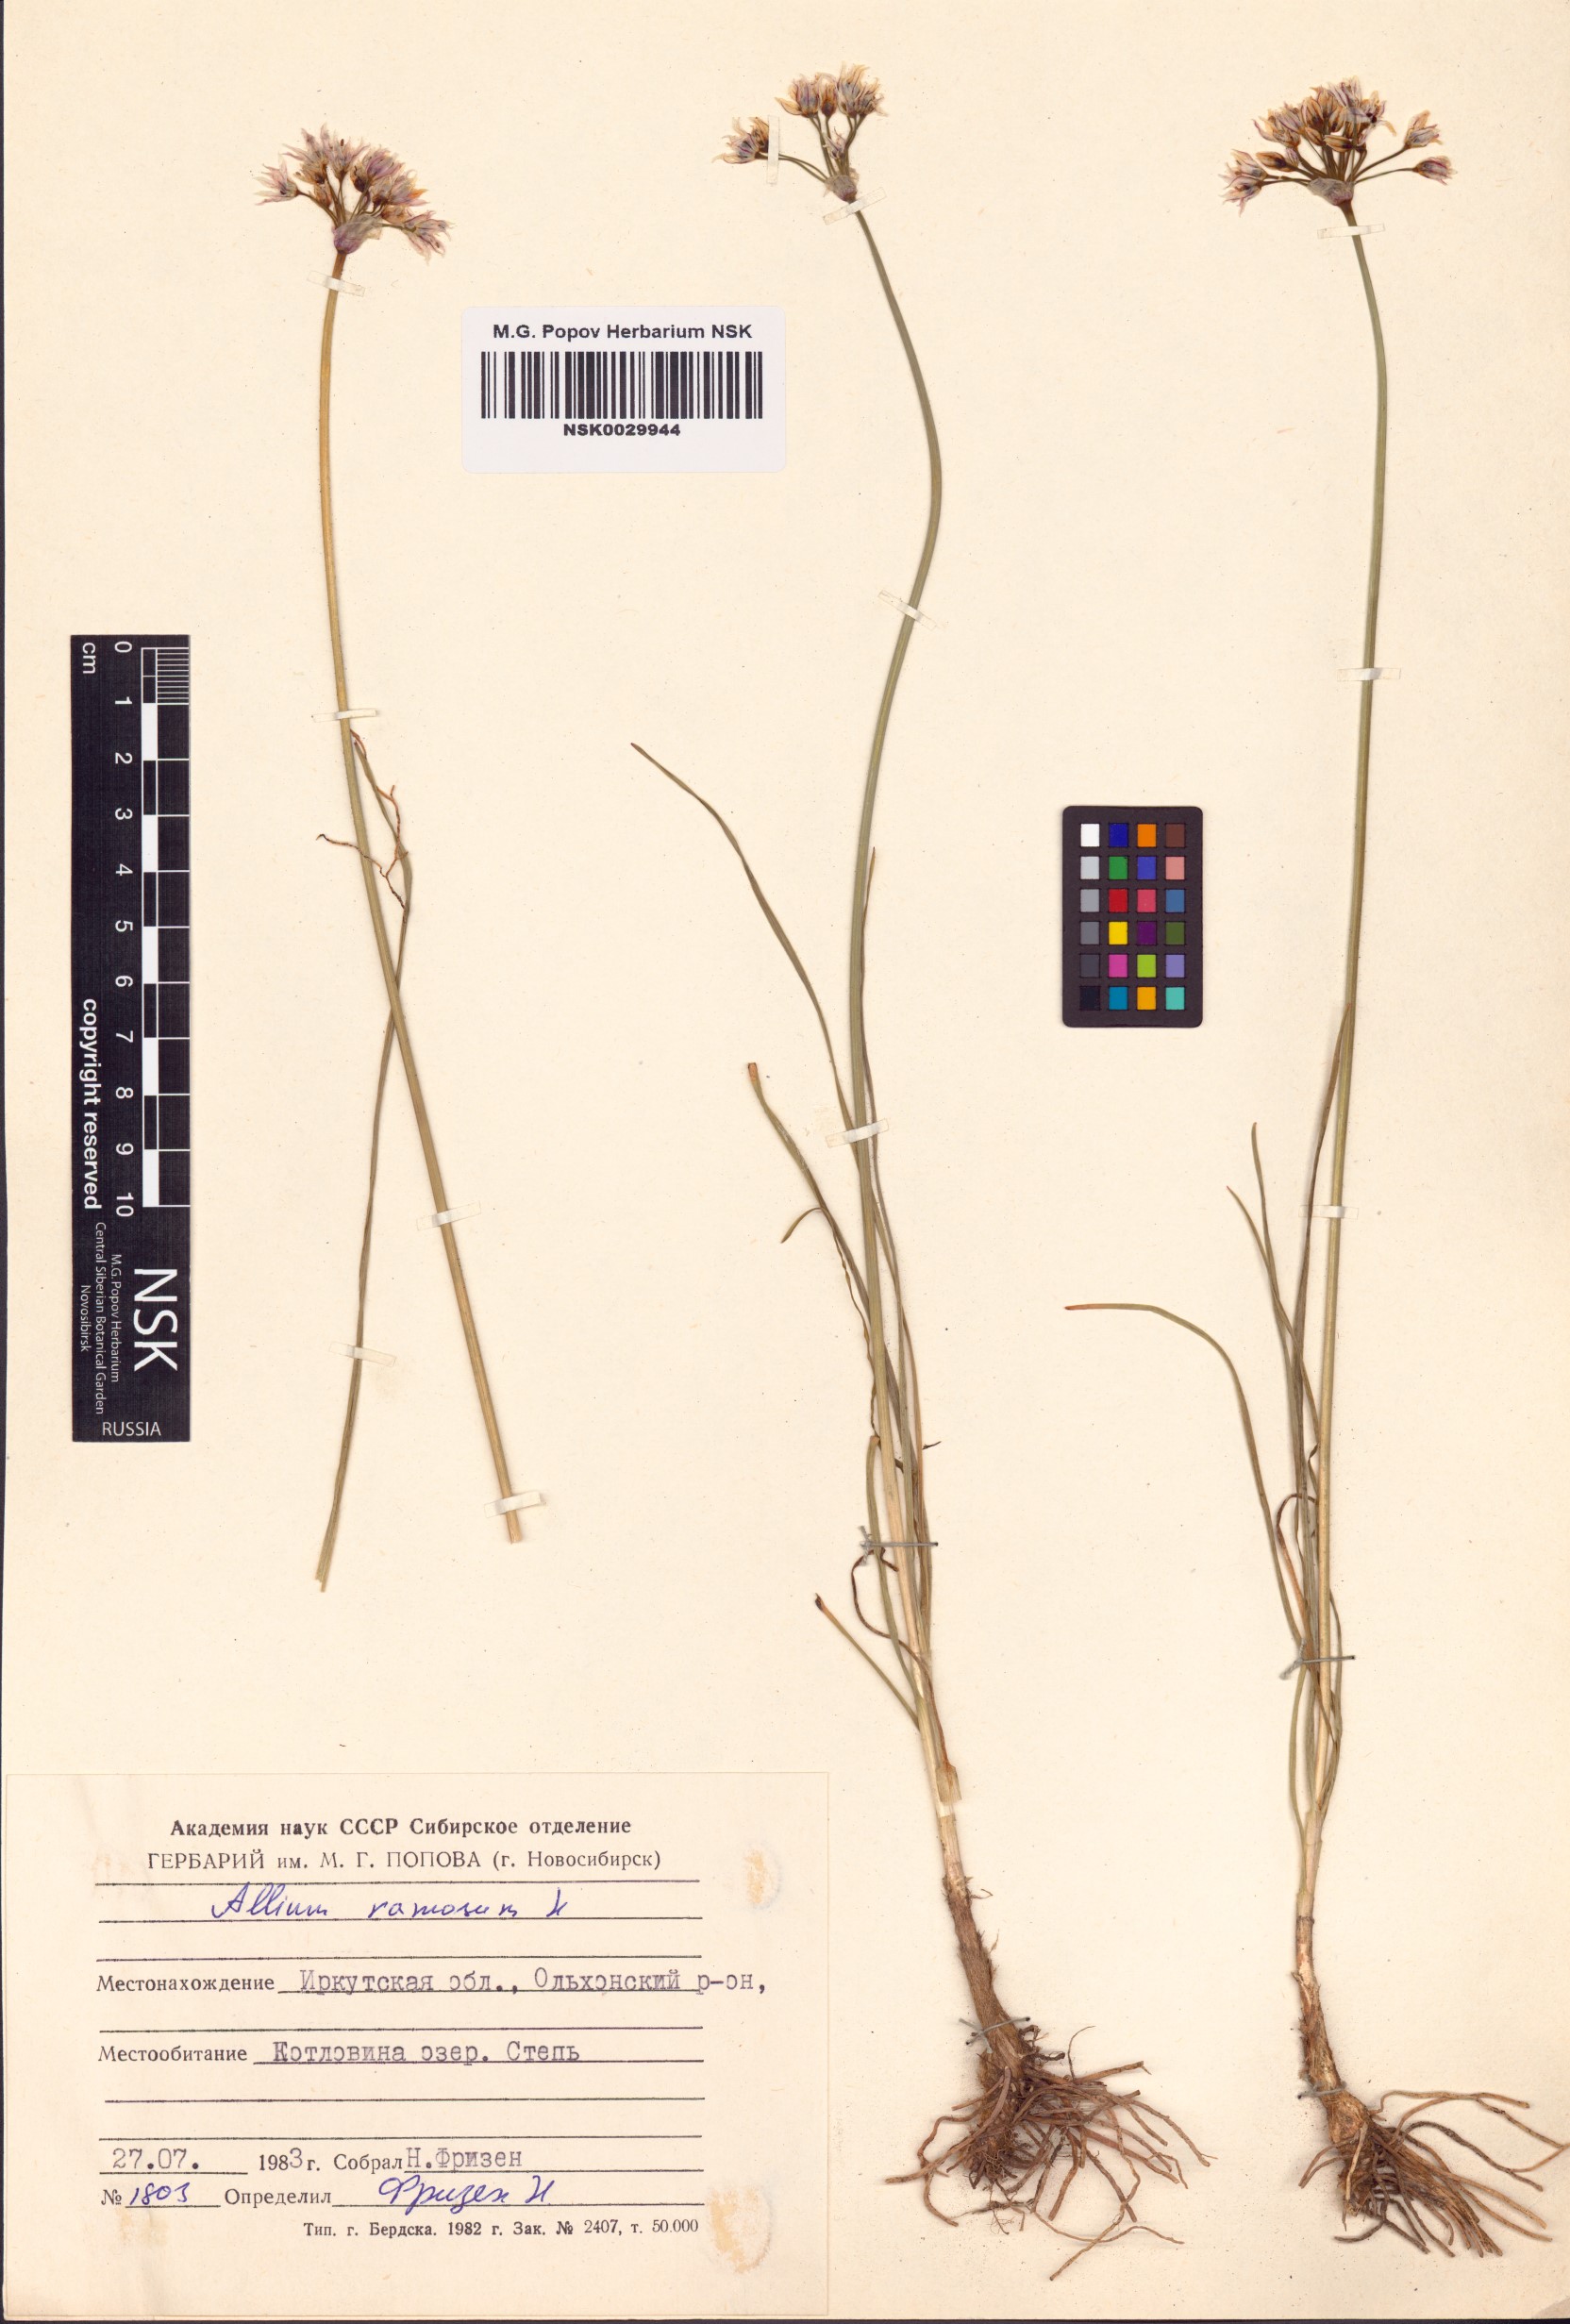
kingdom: Plantae
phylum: Tracheophyta
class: Liliopsida
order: Asparagales
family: Amaryllidaceae
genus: Allium
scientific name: Allium ramosum
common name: Fragrant garlic
